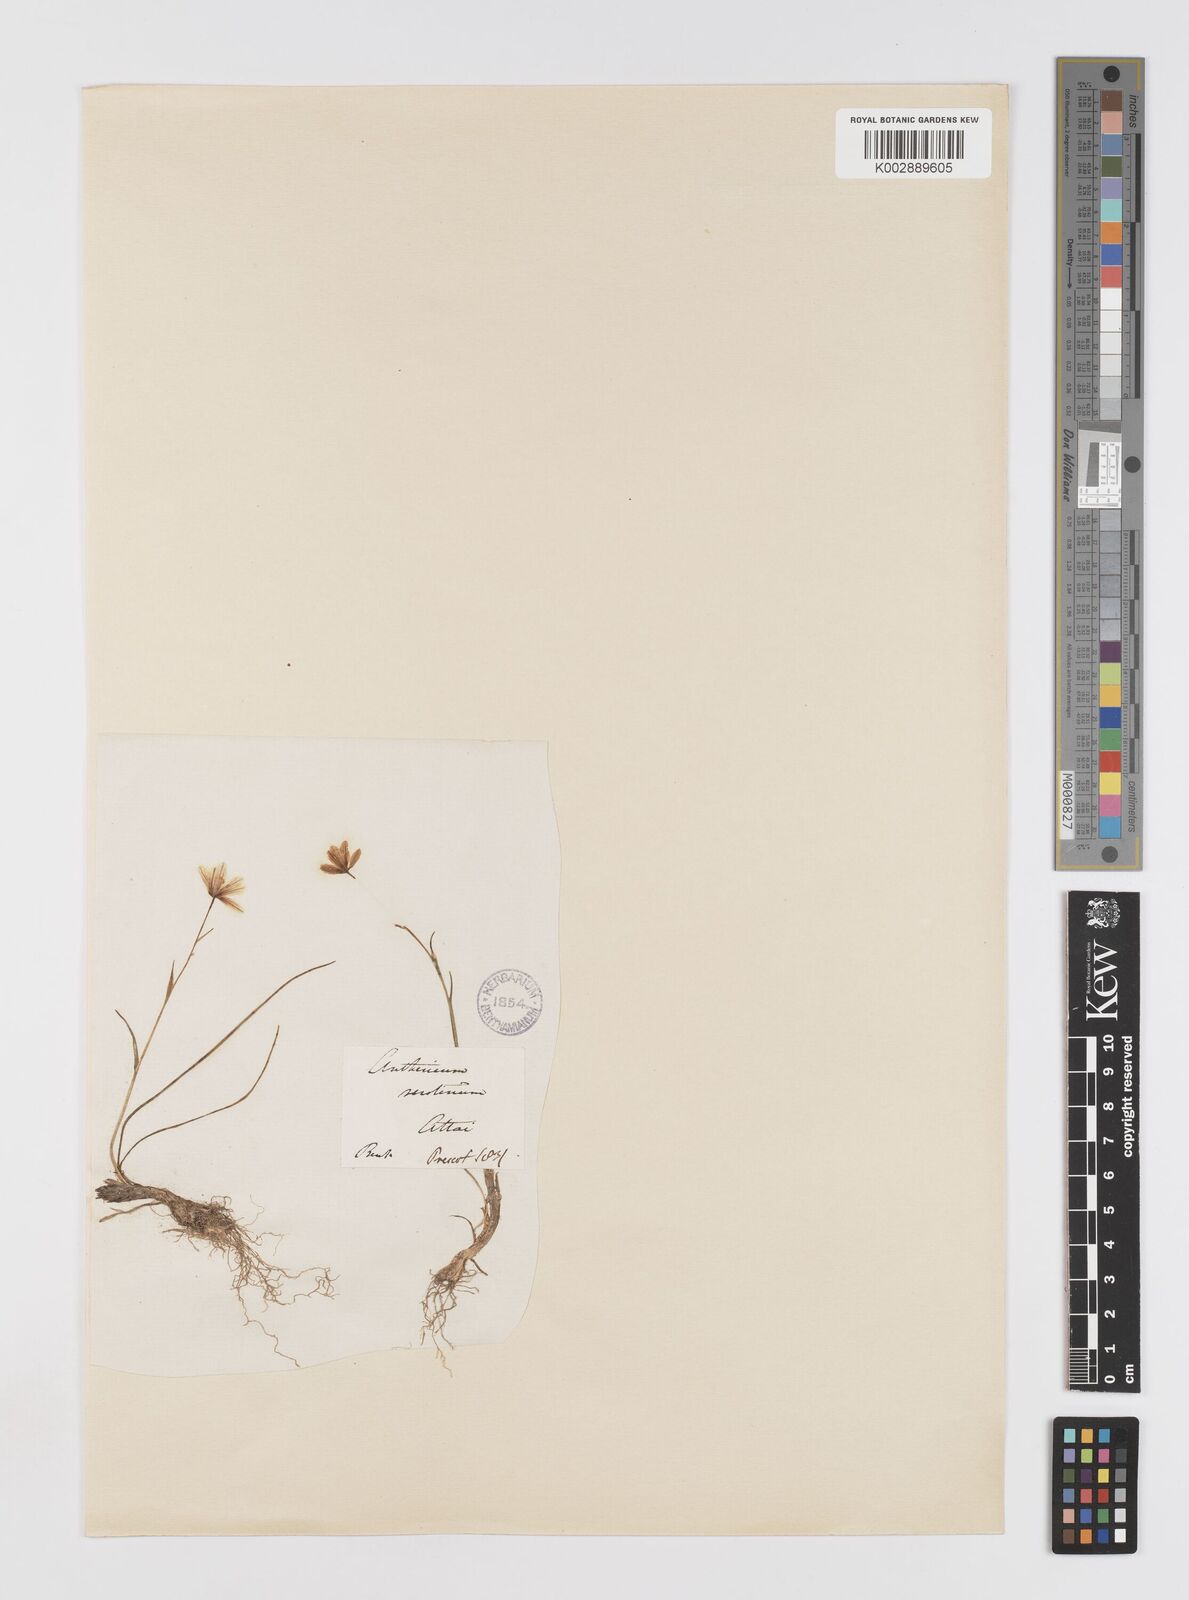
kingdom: Plantae
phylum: Tracheophyta
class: Liliopsida
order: Liliales
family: Liliaceae
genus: Gagea
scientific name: Gagea serotina
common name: Snowdon lily
